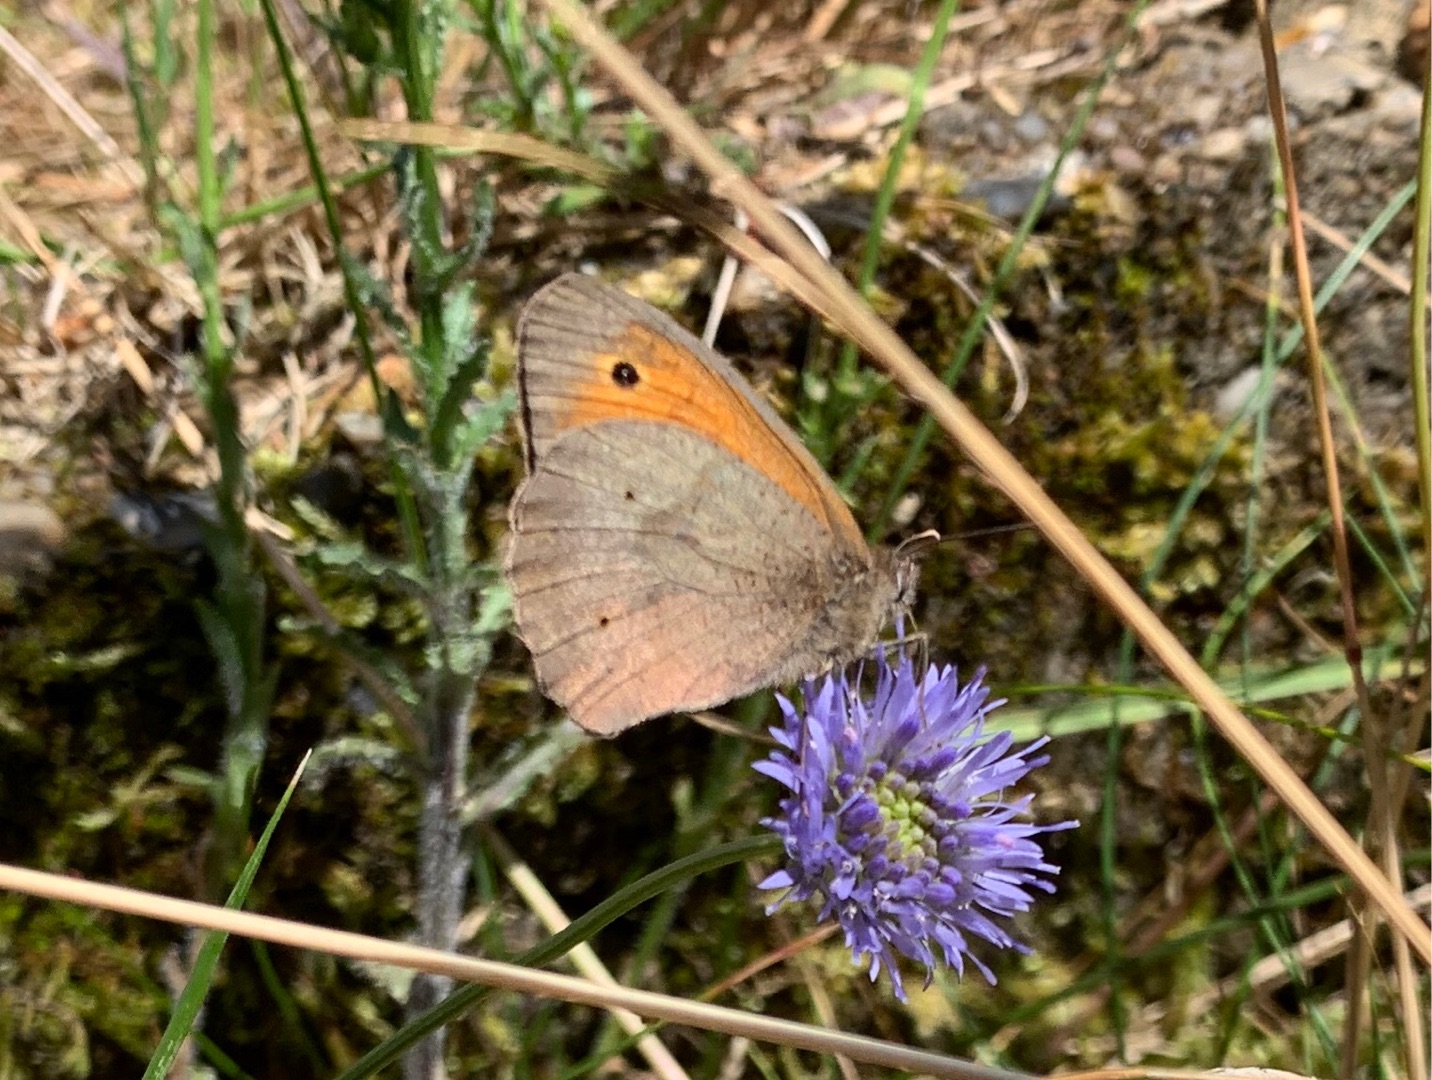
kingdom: Animalia
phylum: Arthropoda
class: Insecta
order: Lepidoptera
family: Nymphalidae
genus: Maniola
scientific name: Maniola jurtina
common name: Græsrandøje
